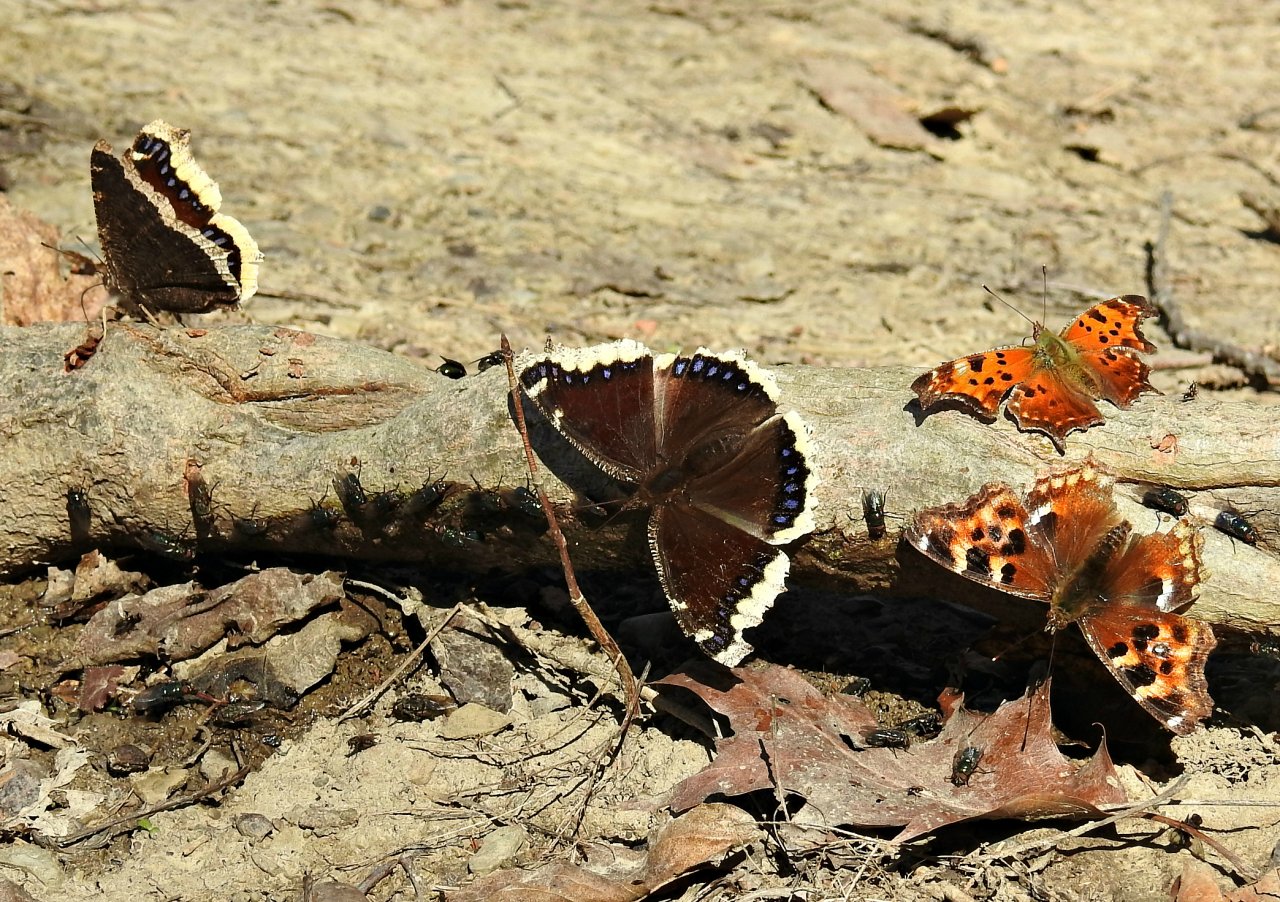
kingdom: Animalia
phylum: Arthropoda
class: Insecta
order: Lepidoptera
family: Nymphalidae
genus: Nymphalis
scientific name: Nymphalis antiopa
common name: Mourning Cloak
